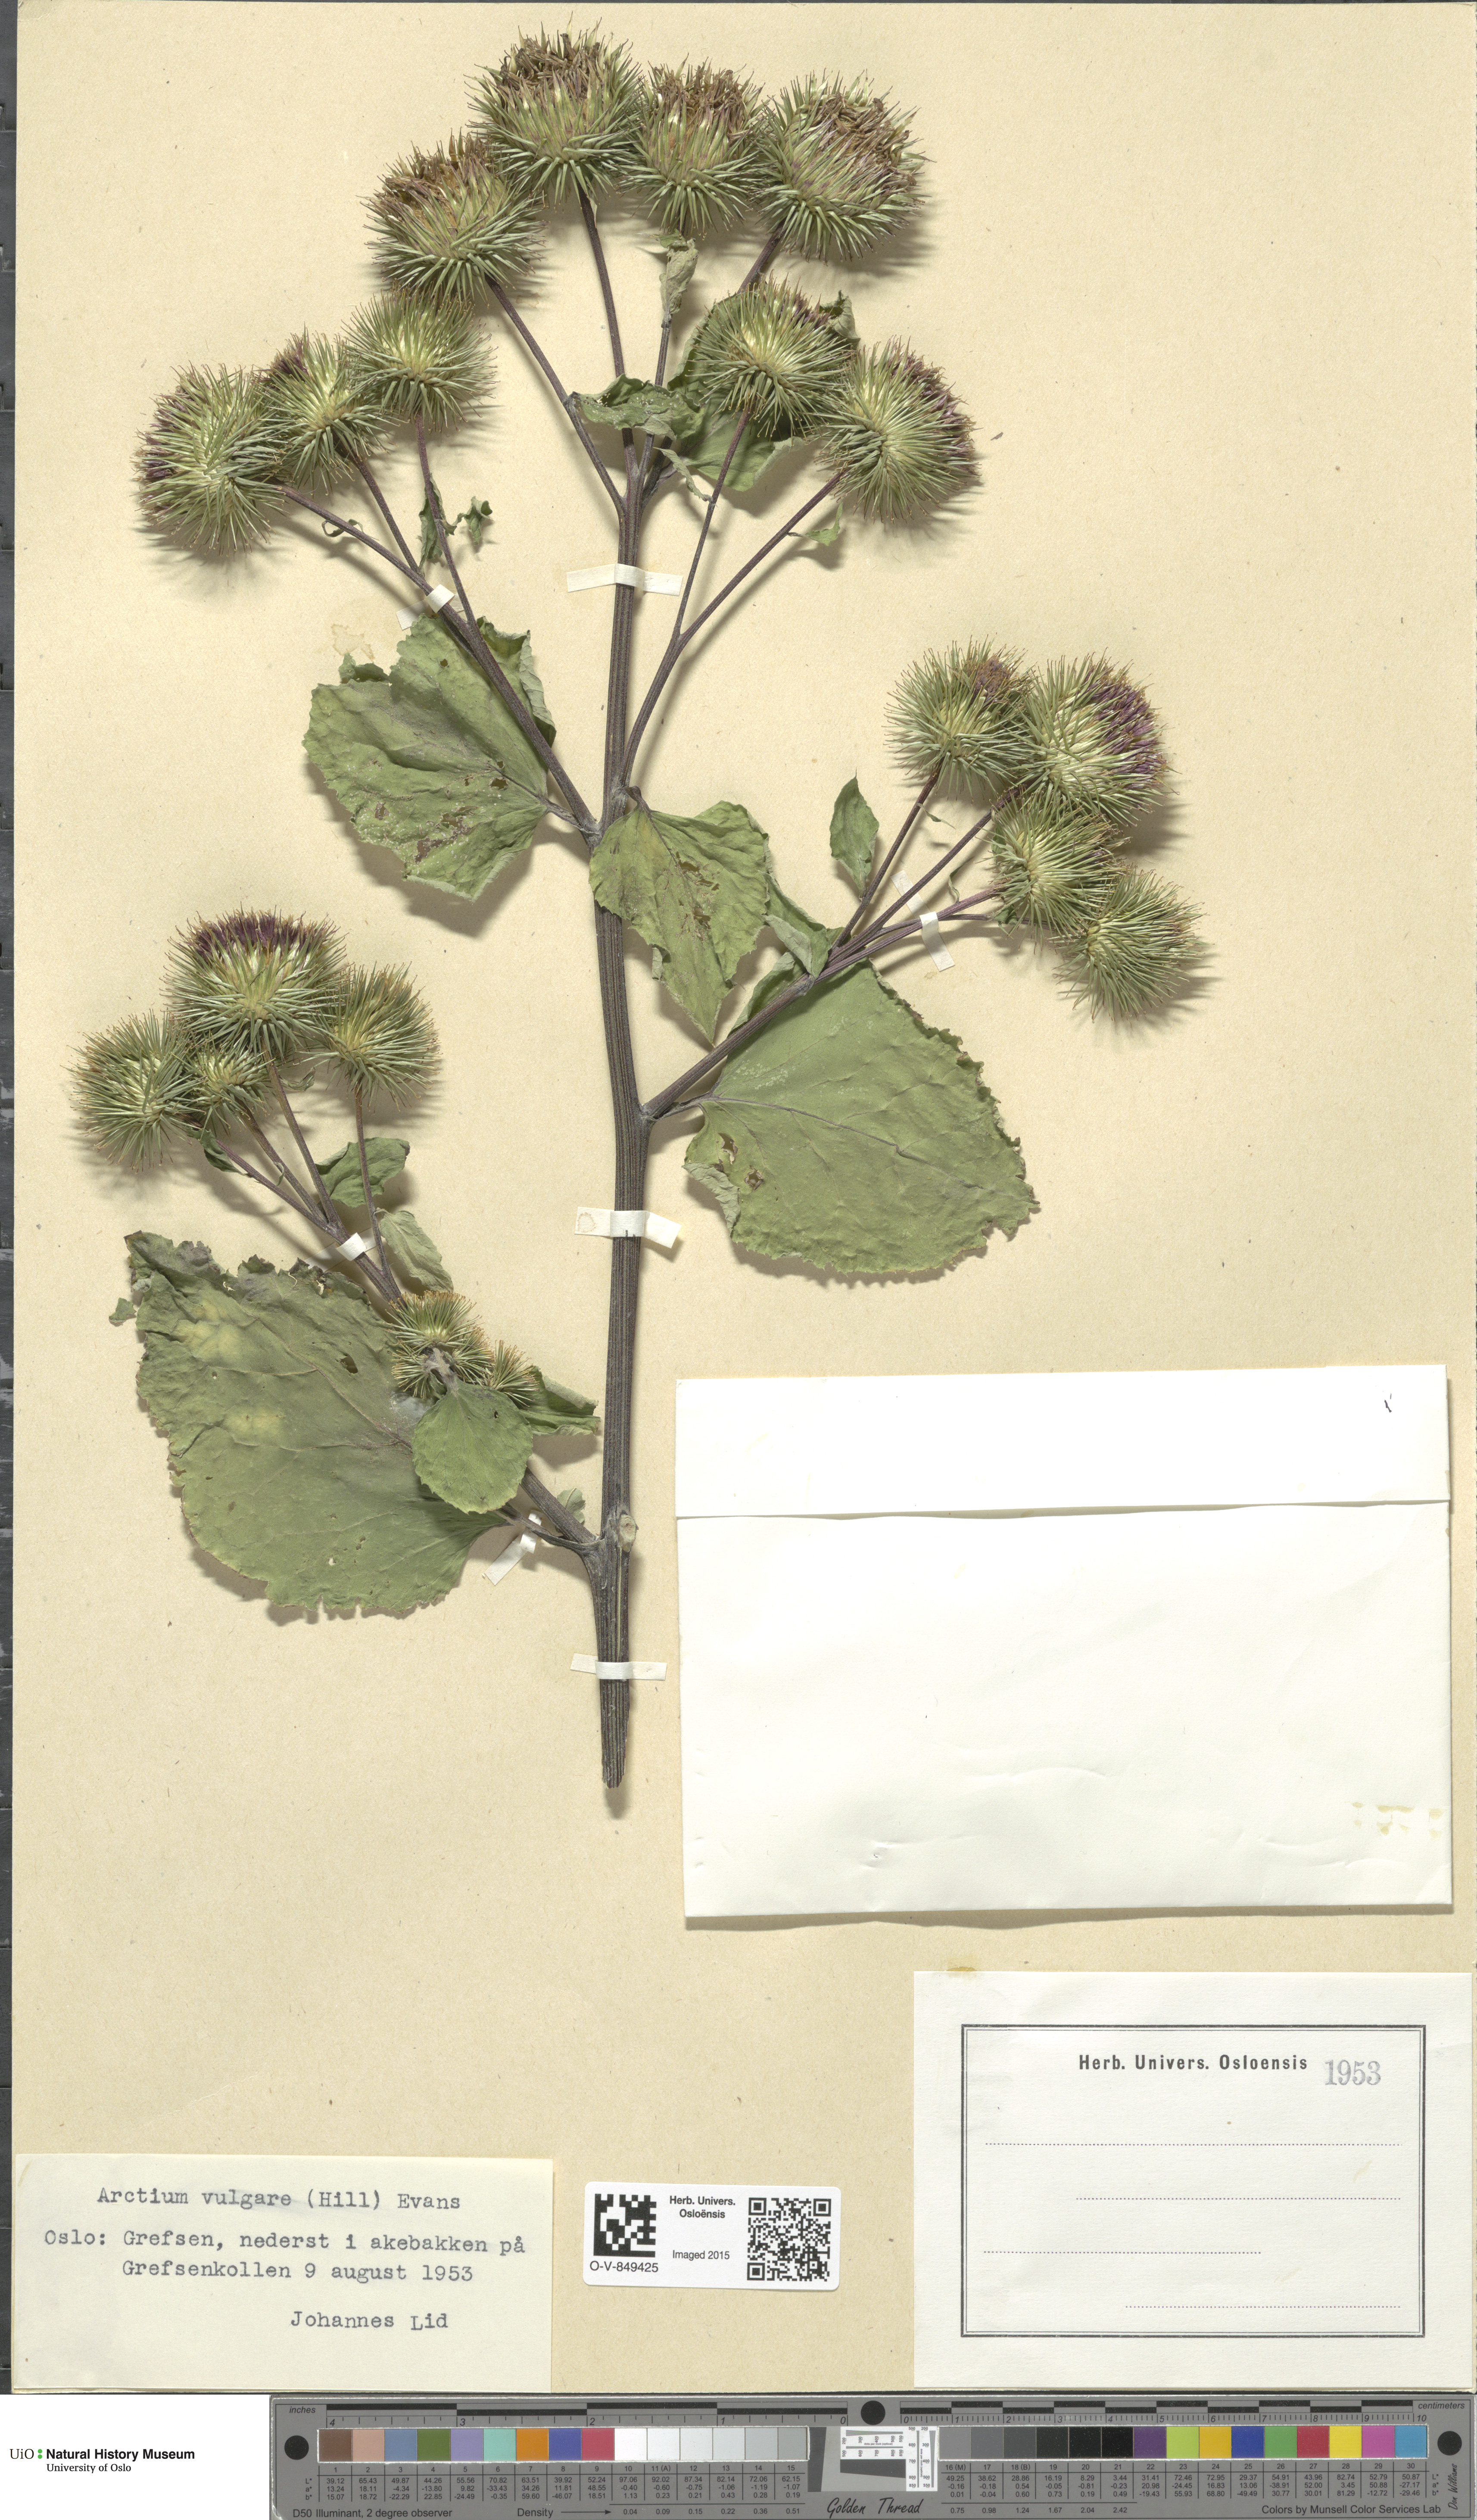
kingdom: Plantae
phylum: Tracheophyta
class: Magnoliopsida
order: Asterales
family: Asteraceae
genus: Arctium
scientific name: Arctium lappa
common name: Greater burdock
